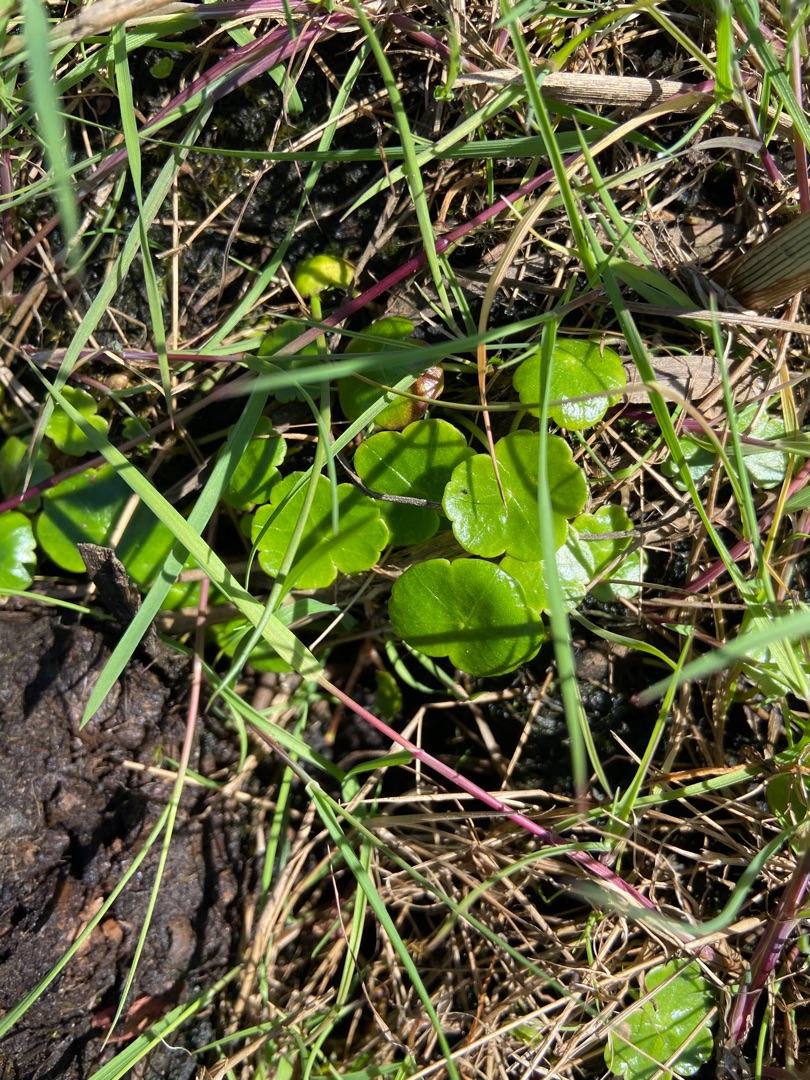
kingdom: Plantae
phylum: Tracheophyta
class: Magnoliopsida
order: Apiales
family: Araliaceae
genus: Hydrocotyle
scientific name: Hydrocotyle vulgaris
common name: Vandnavle
